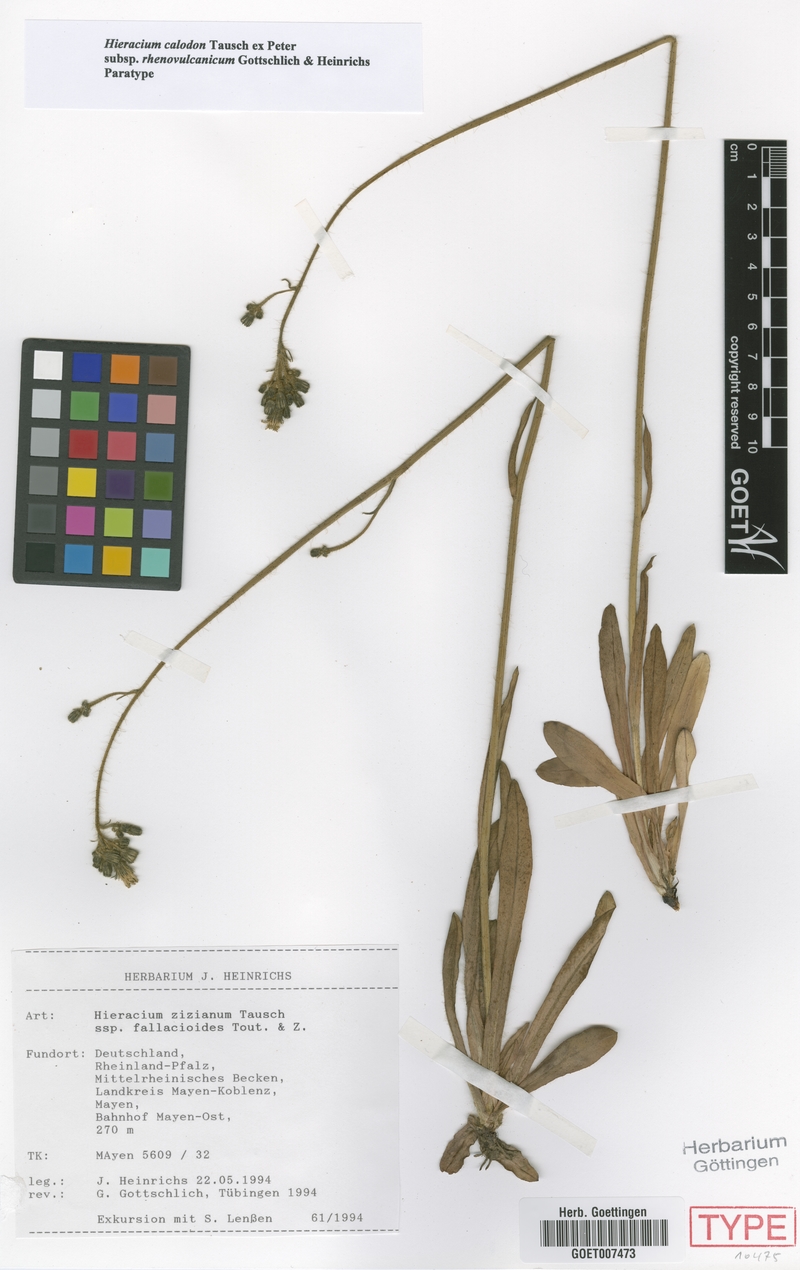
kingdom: Plantae
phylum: Tracheophyta
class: Magnoliopsida
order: Asterales
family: Asteraceae
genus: Pilosella
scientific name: Pilosella calodon
